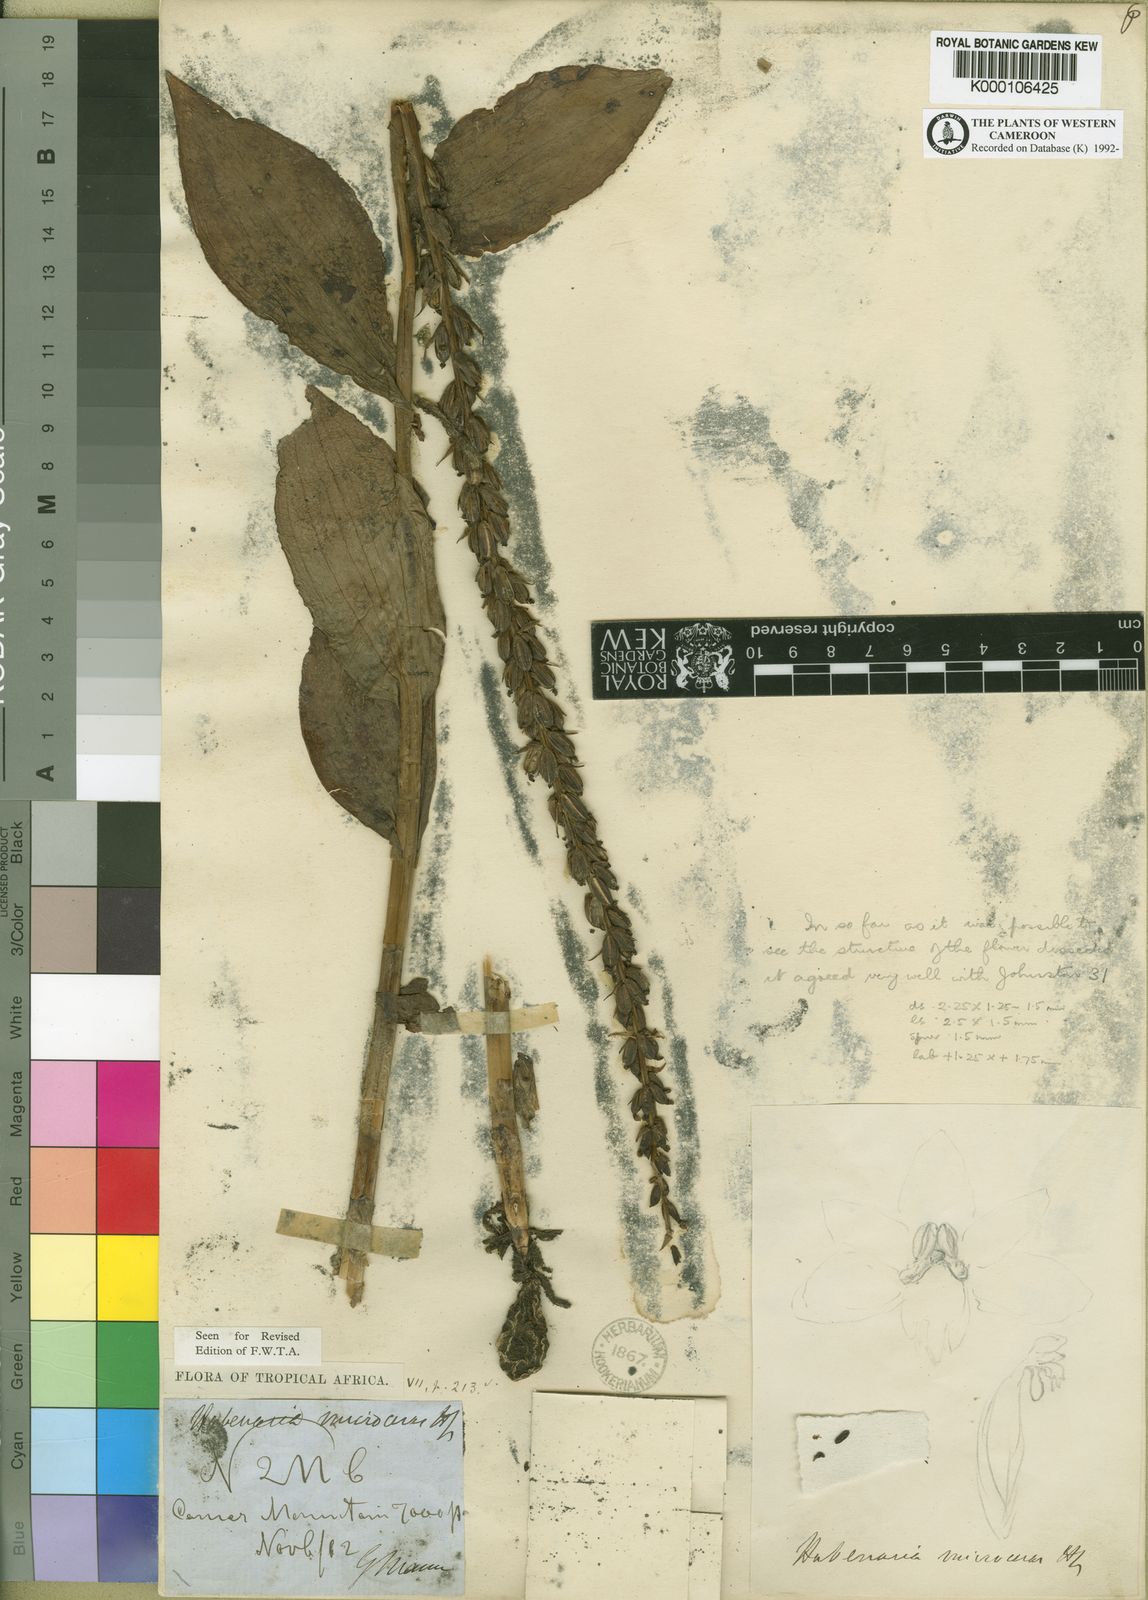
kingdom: Plantae
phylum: Tracheophyta
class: Liliopsida
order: Asparagales
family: Orchidaceae
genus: Habenaria
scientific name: Habenaria microceras
